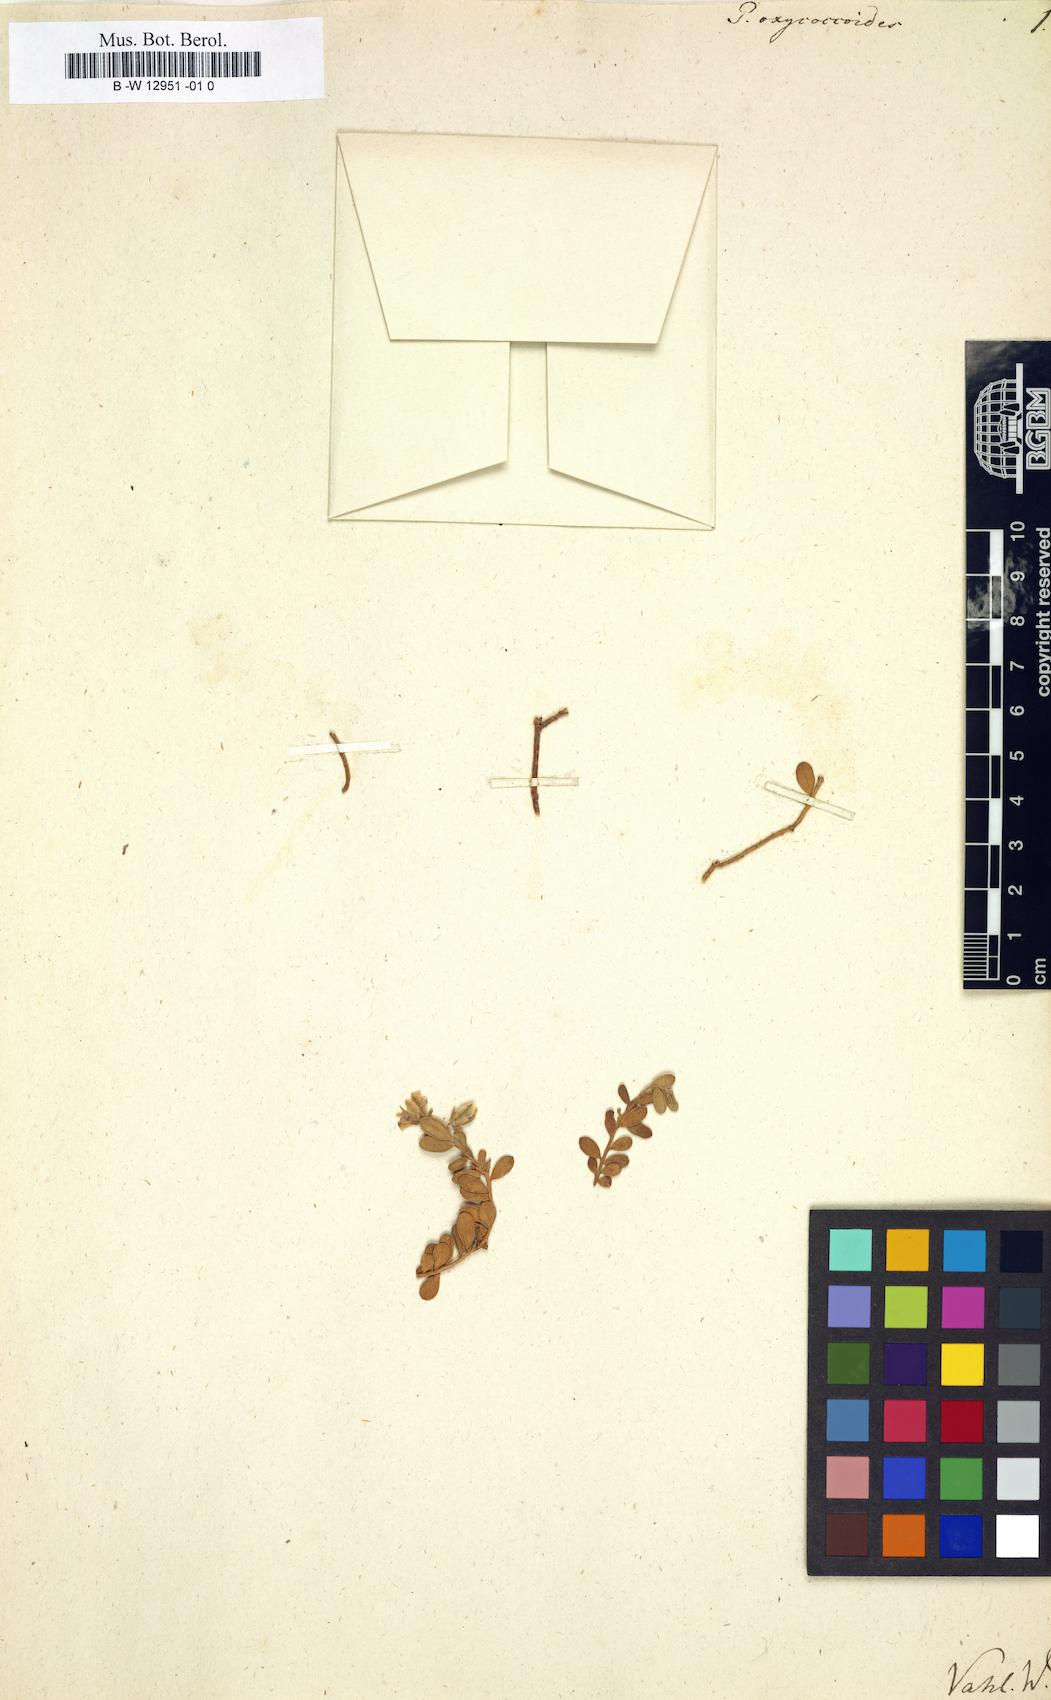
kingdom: Plantae
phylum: Tracheophyta
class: Magnoliopsida
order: Fabales
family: Polygalaceae
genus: Polygala
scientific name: Polygala rupestris
